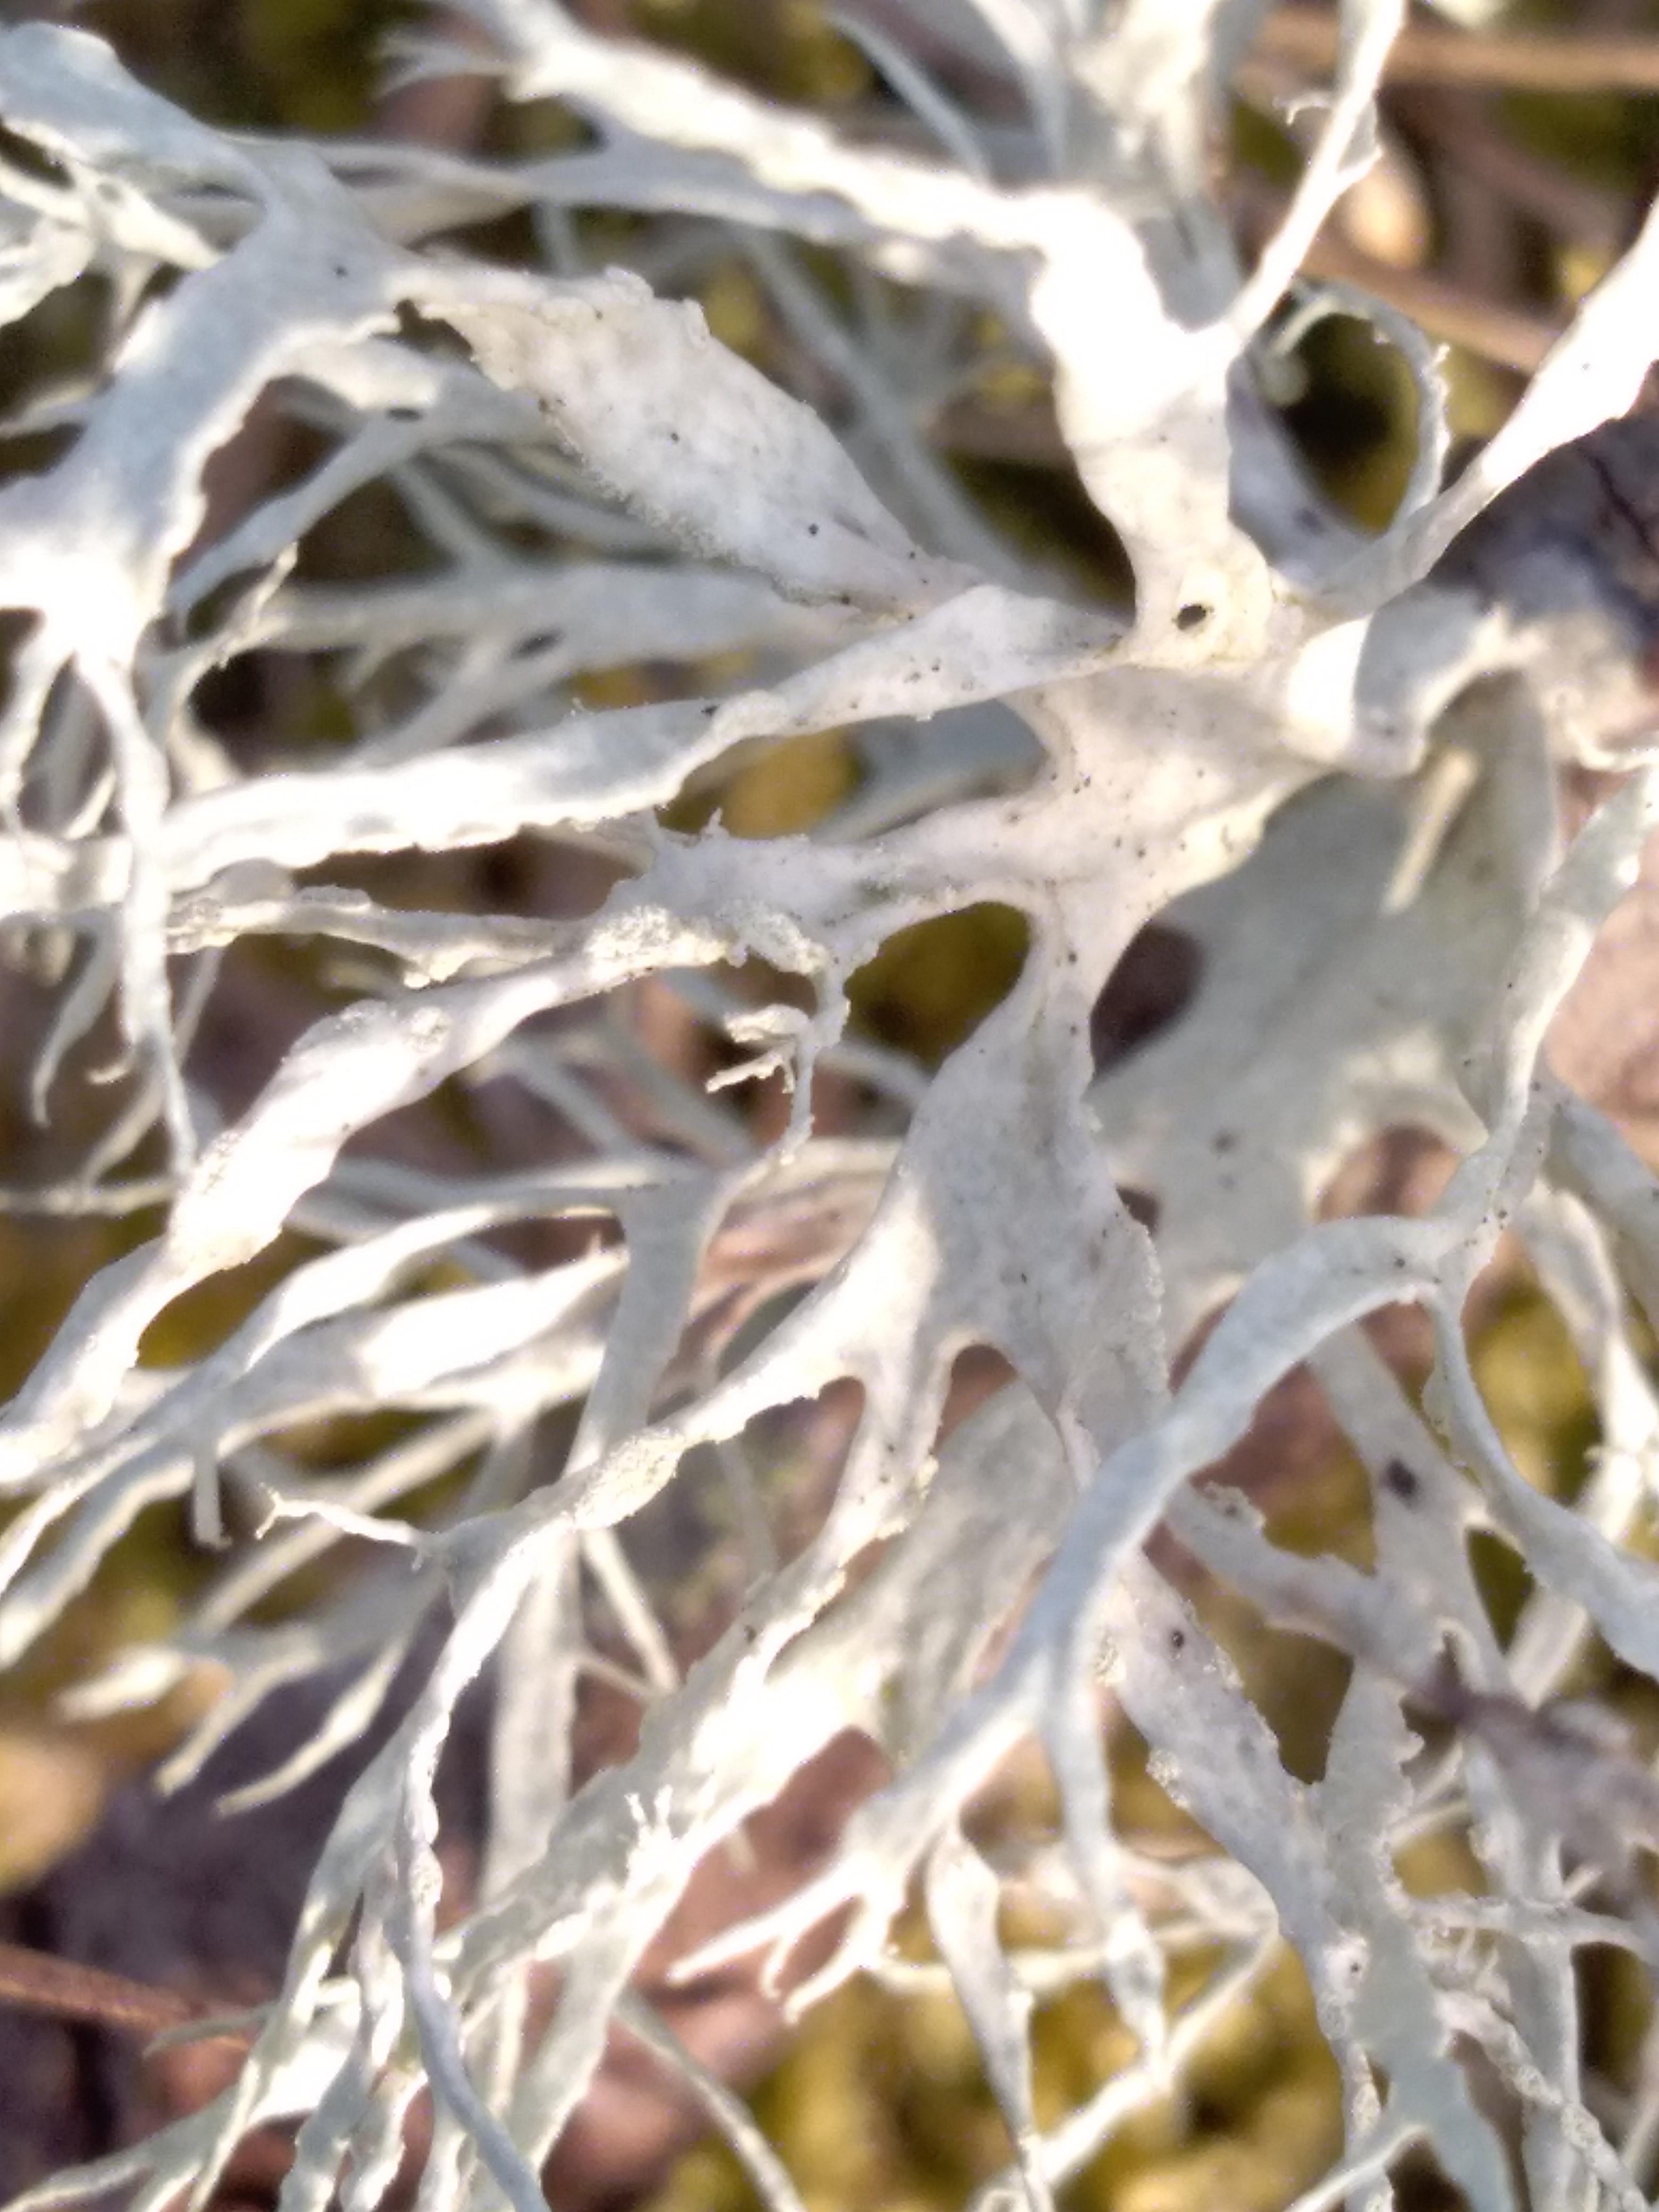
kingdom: Fungi
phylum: Ascomycota
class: Lecanoromycetes
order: Lecanorales
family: Ramalinaceae
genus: Ramalina
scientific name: Ramalina farinacea
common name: melet grenlav
